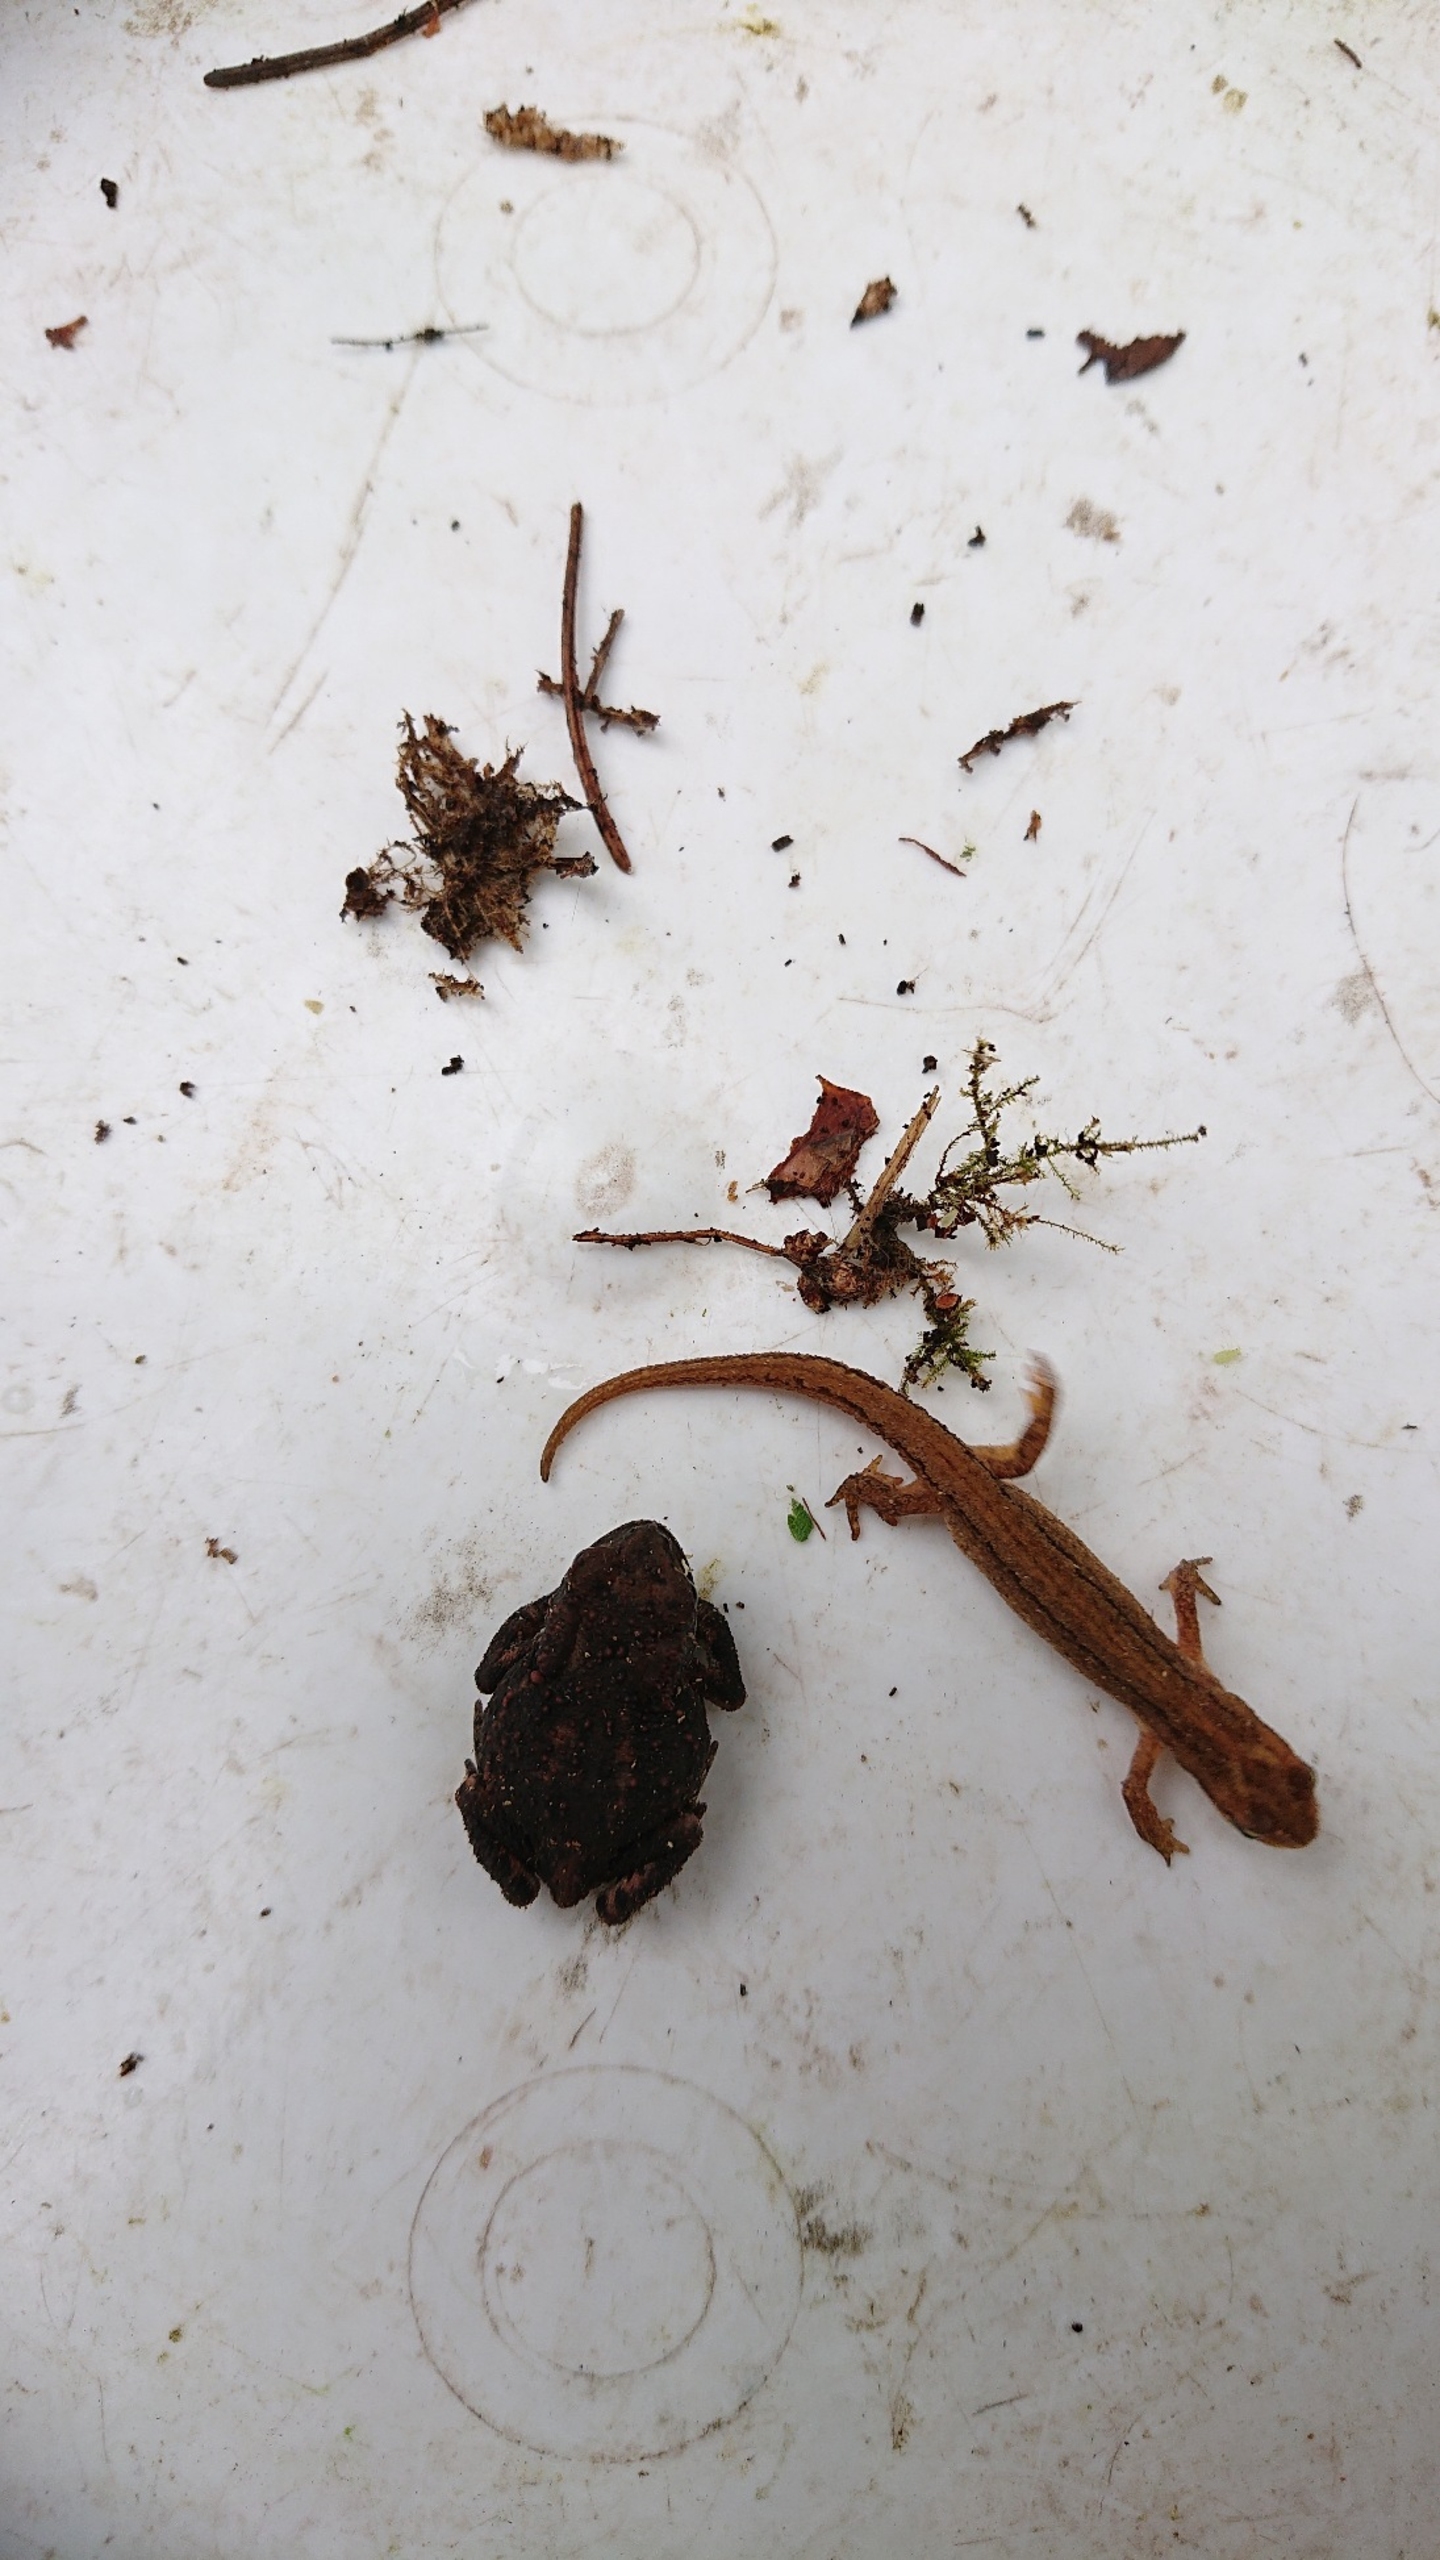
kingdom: Animalia
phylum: Chordata
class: Amphibia
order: Caudata
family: Salamandridae
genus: Lissotriton
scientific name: Lissotriton vulgaris
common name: Lille vandsalamander
